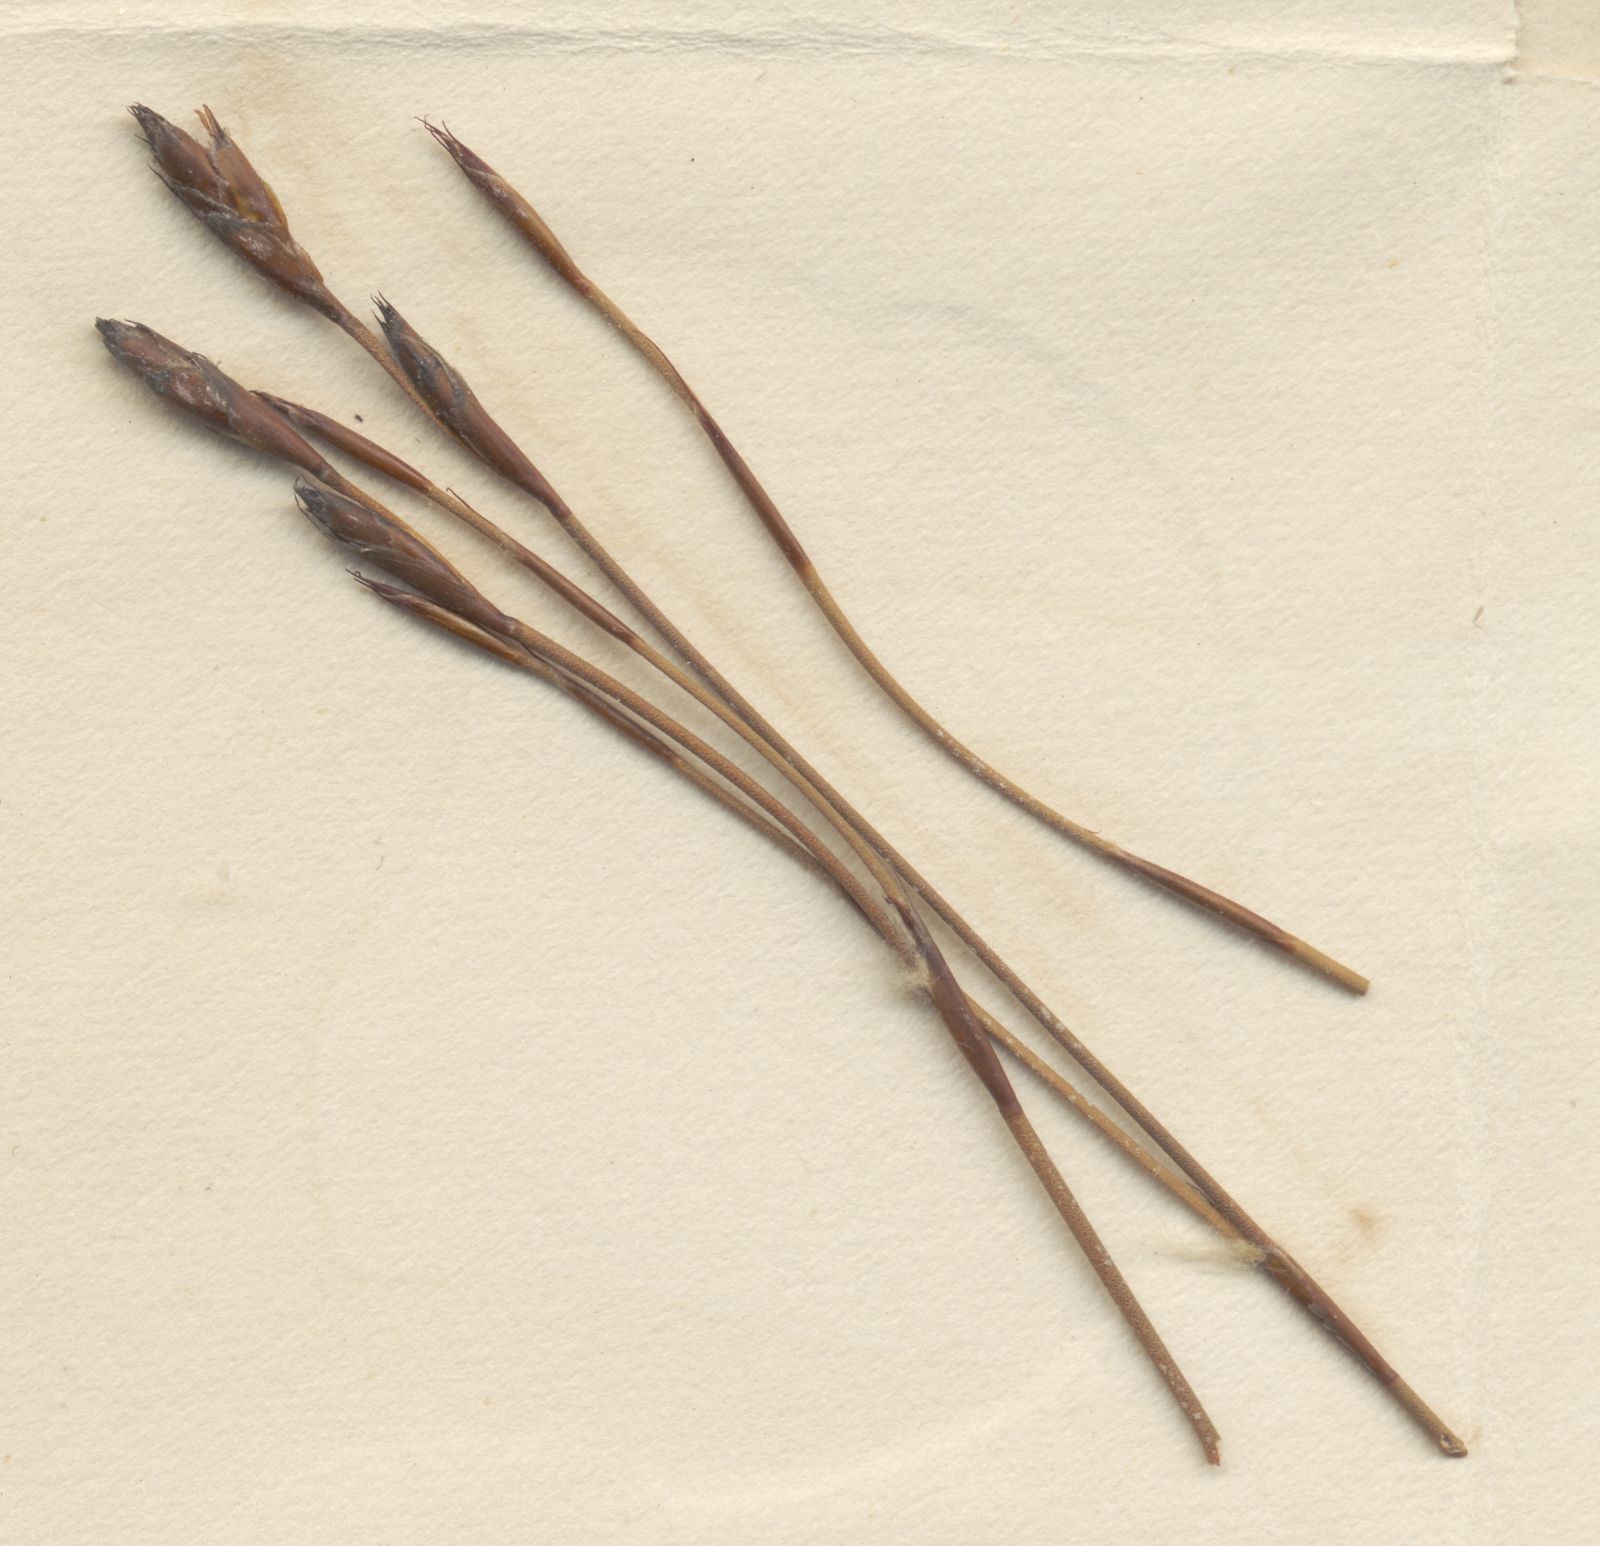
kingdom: Plantae
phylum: Tracheophyta
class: Liliopsida
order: Poales
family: Restionaceae
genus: Restio
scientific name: Restio gossypinus
